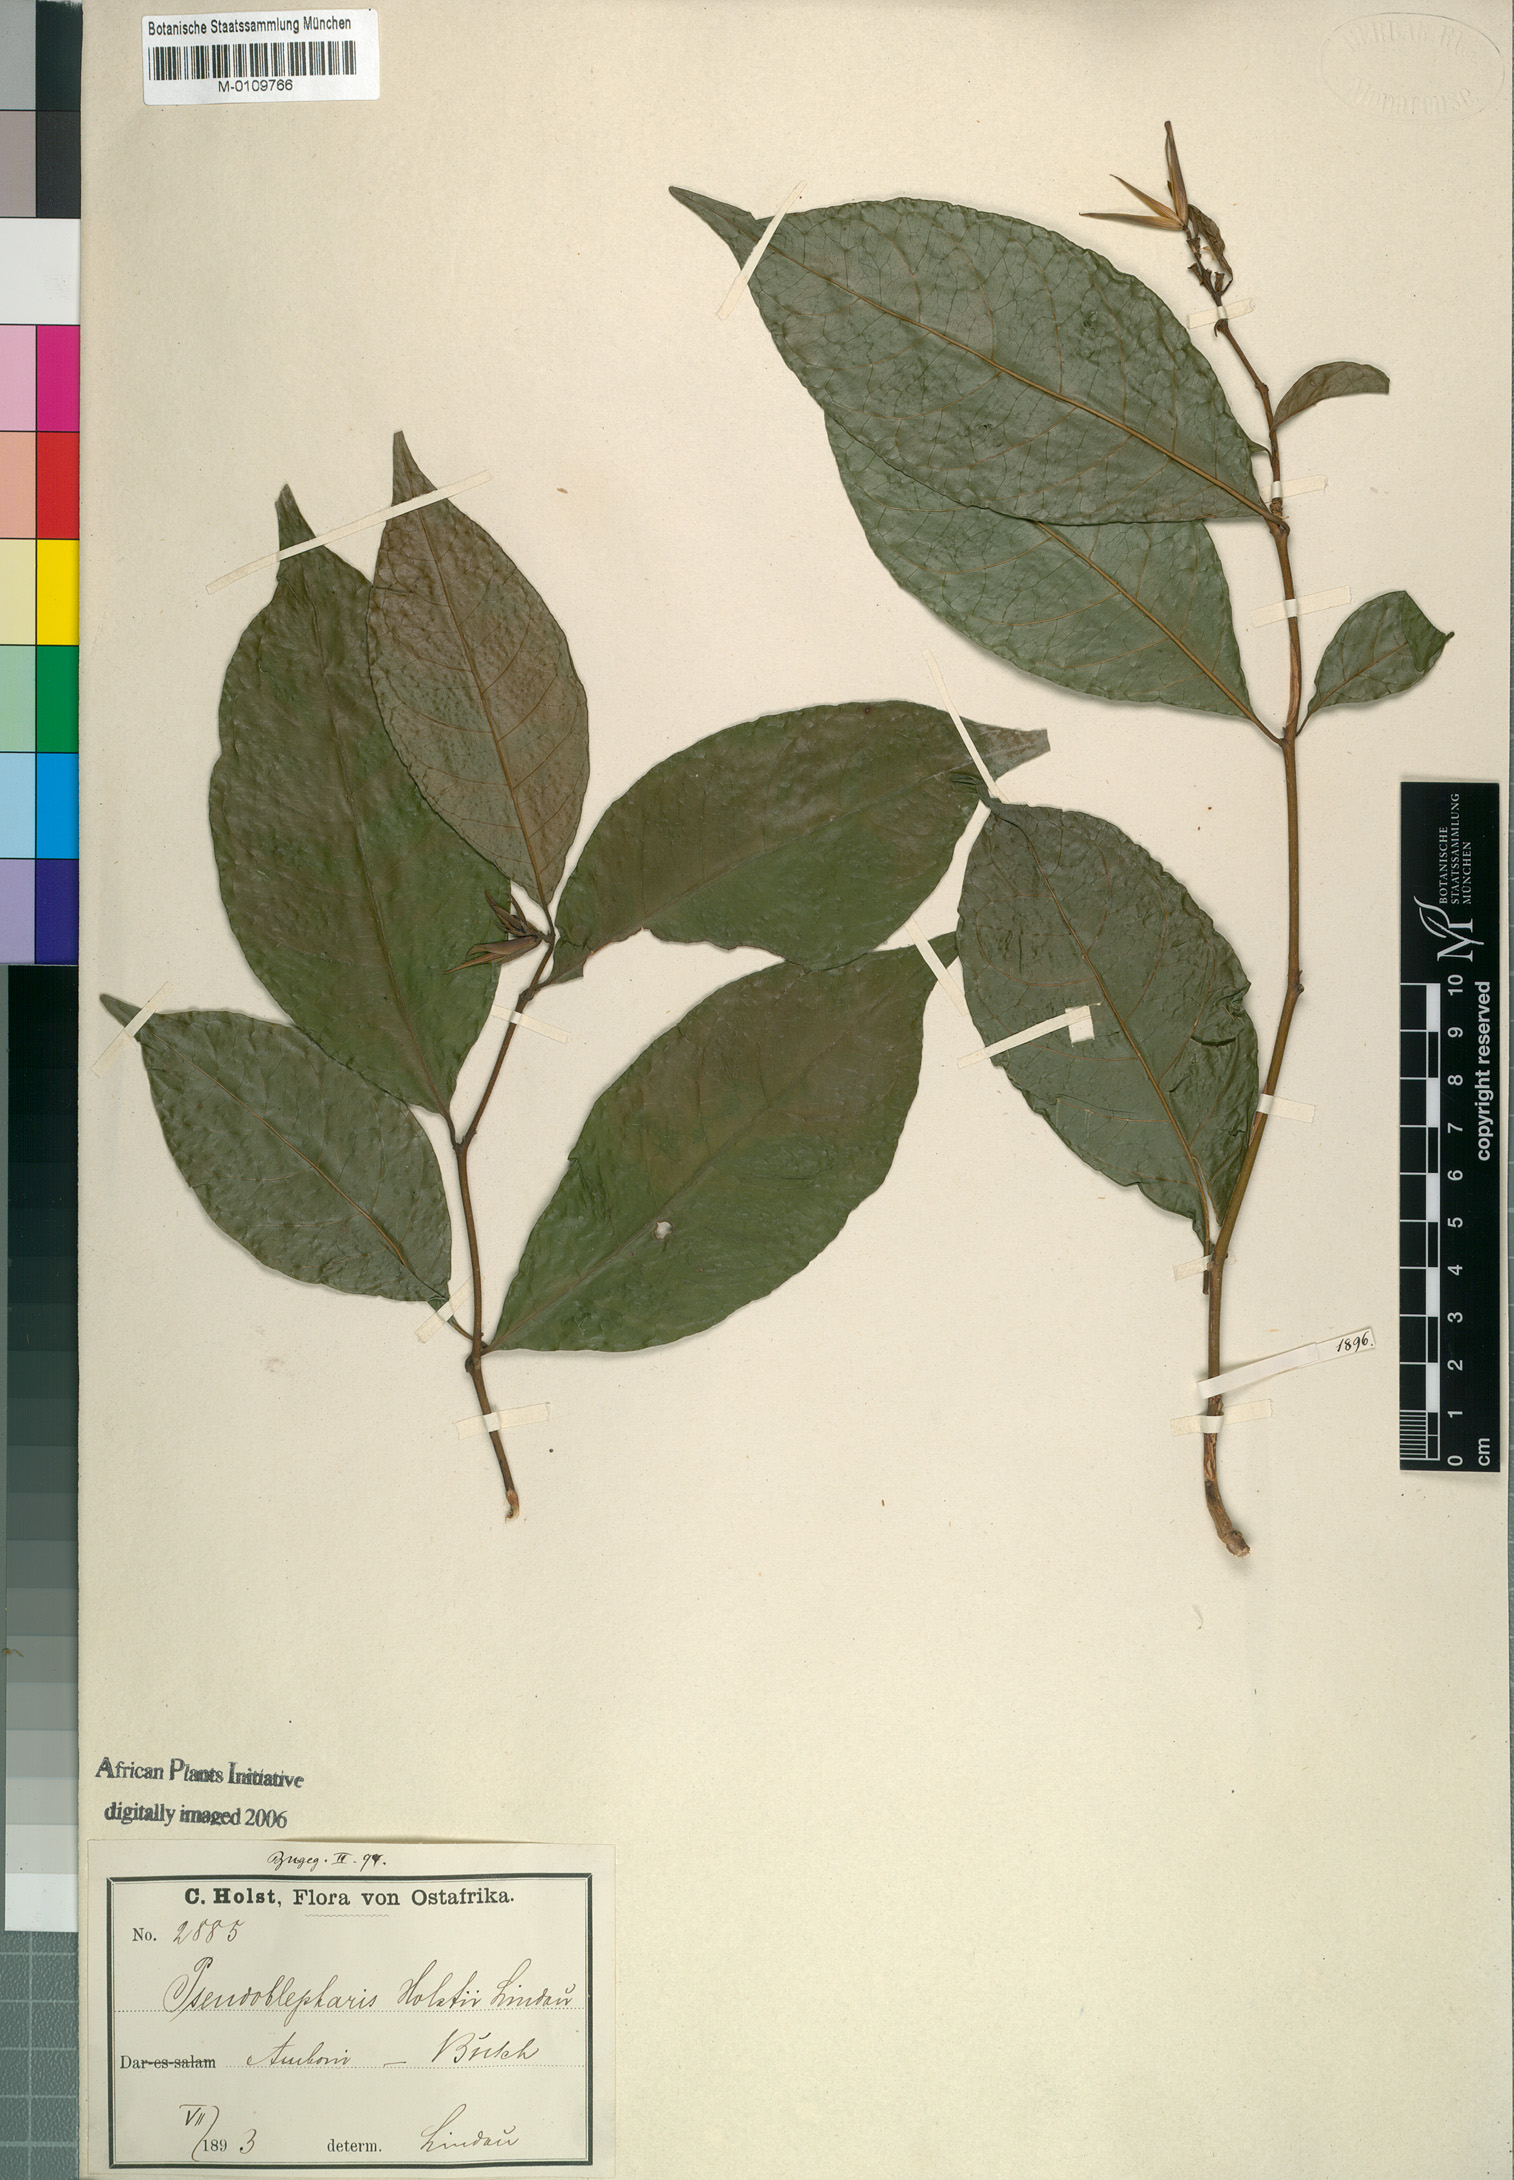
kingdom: Plantae
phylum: Tracheophyta
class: Magnoliopsida
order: Lamiales
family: Acanthaceae
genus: Sclerochiton
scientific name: Sclerochiton vogelii
